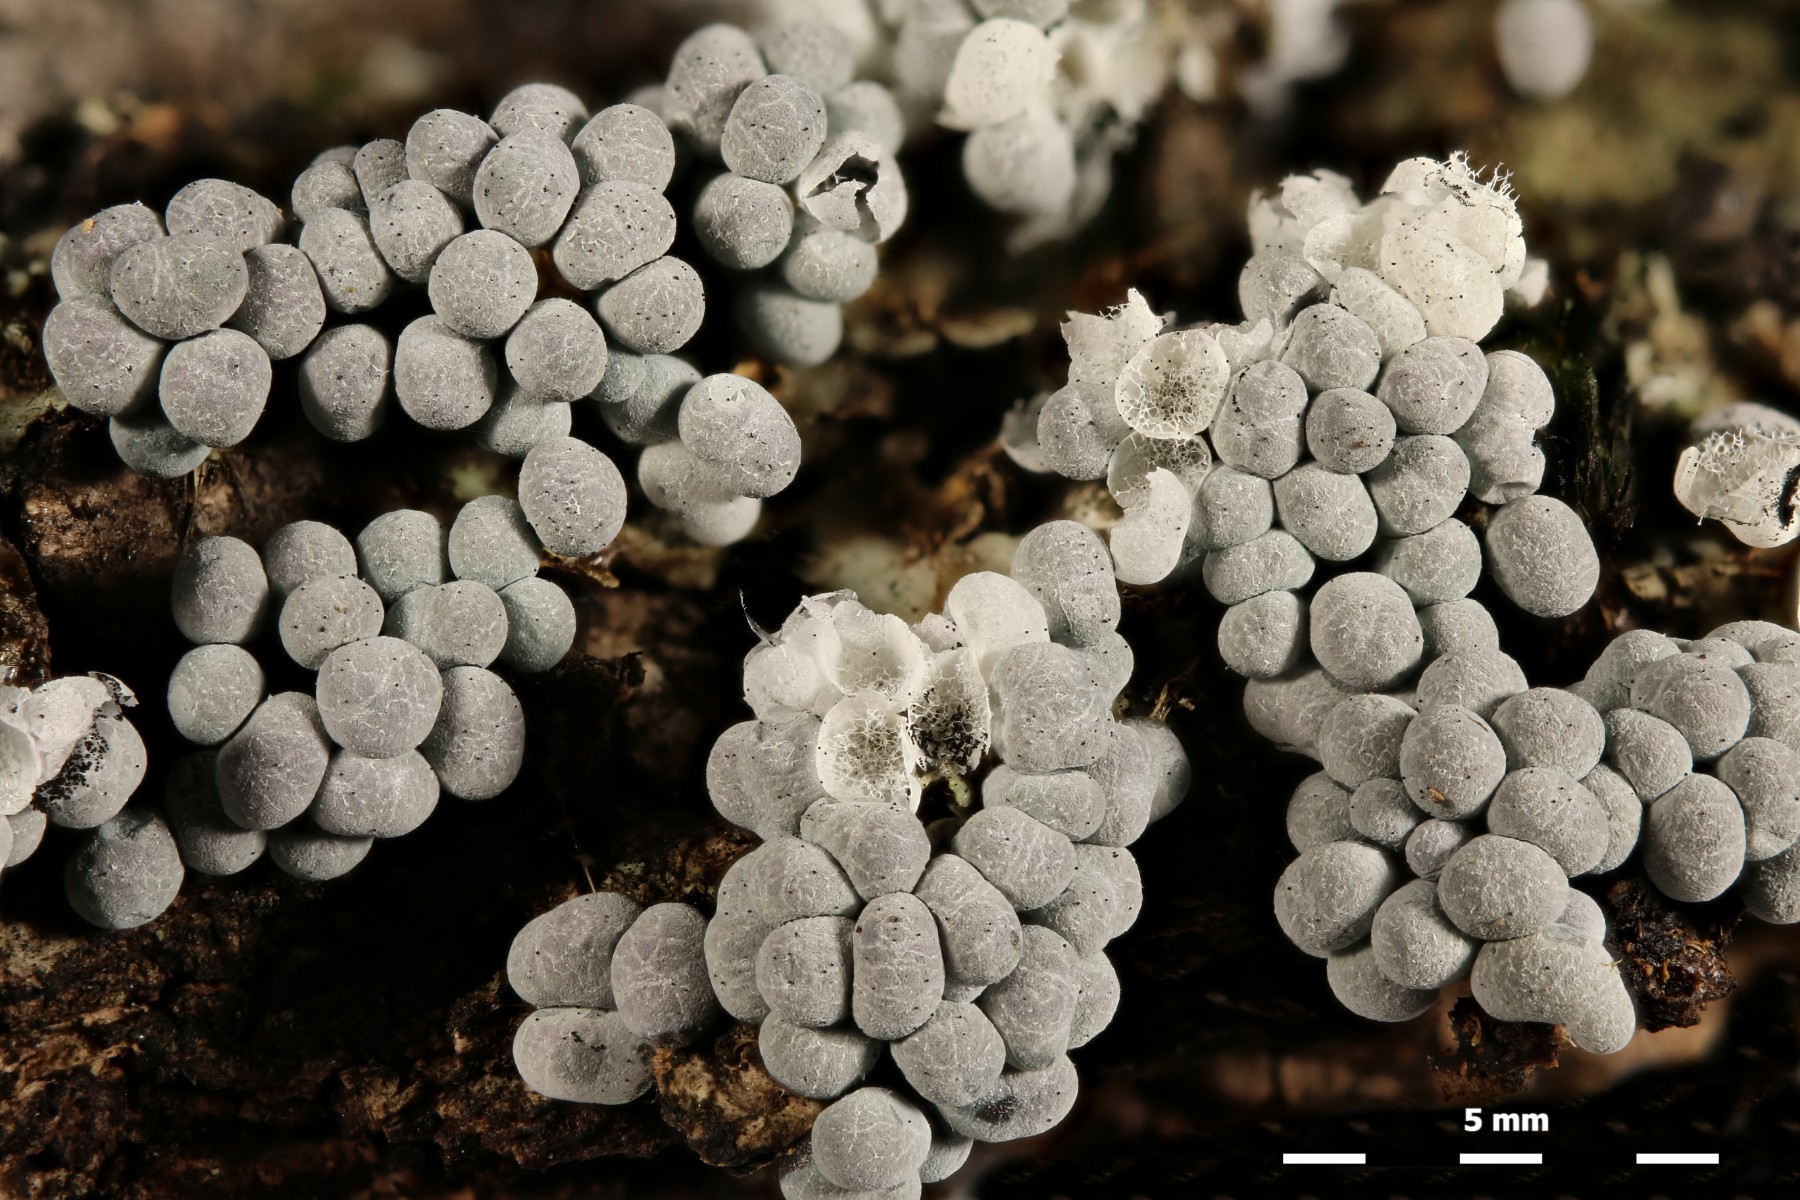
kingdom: Protozoa
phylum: Mycetozoa
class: Myxomycetes
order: Physarales
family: Physaraceae
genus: Badhamia
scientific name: Badhamia utricularis
